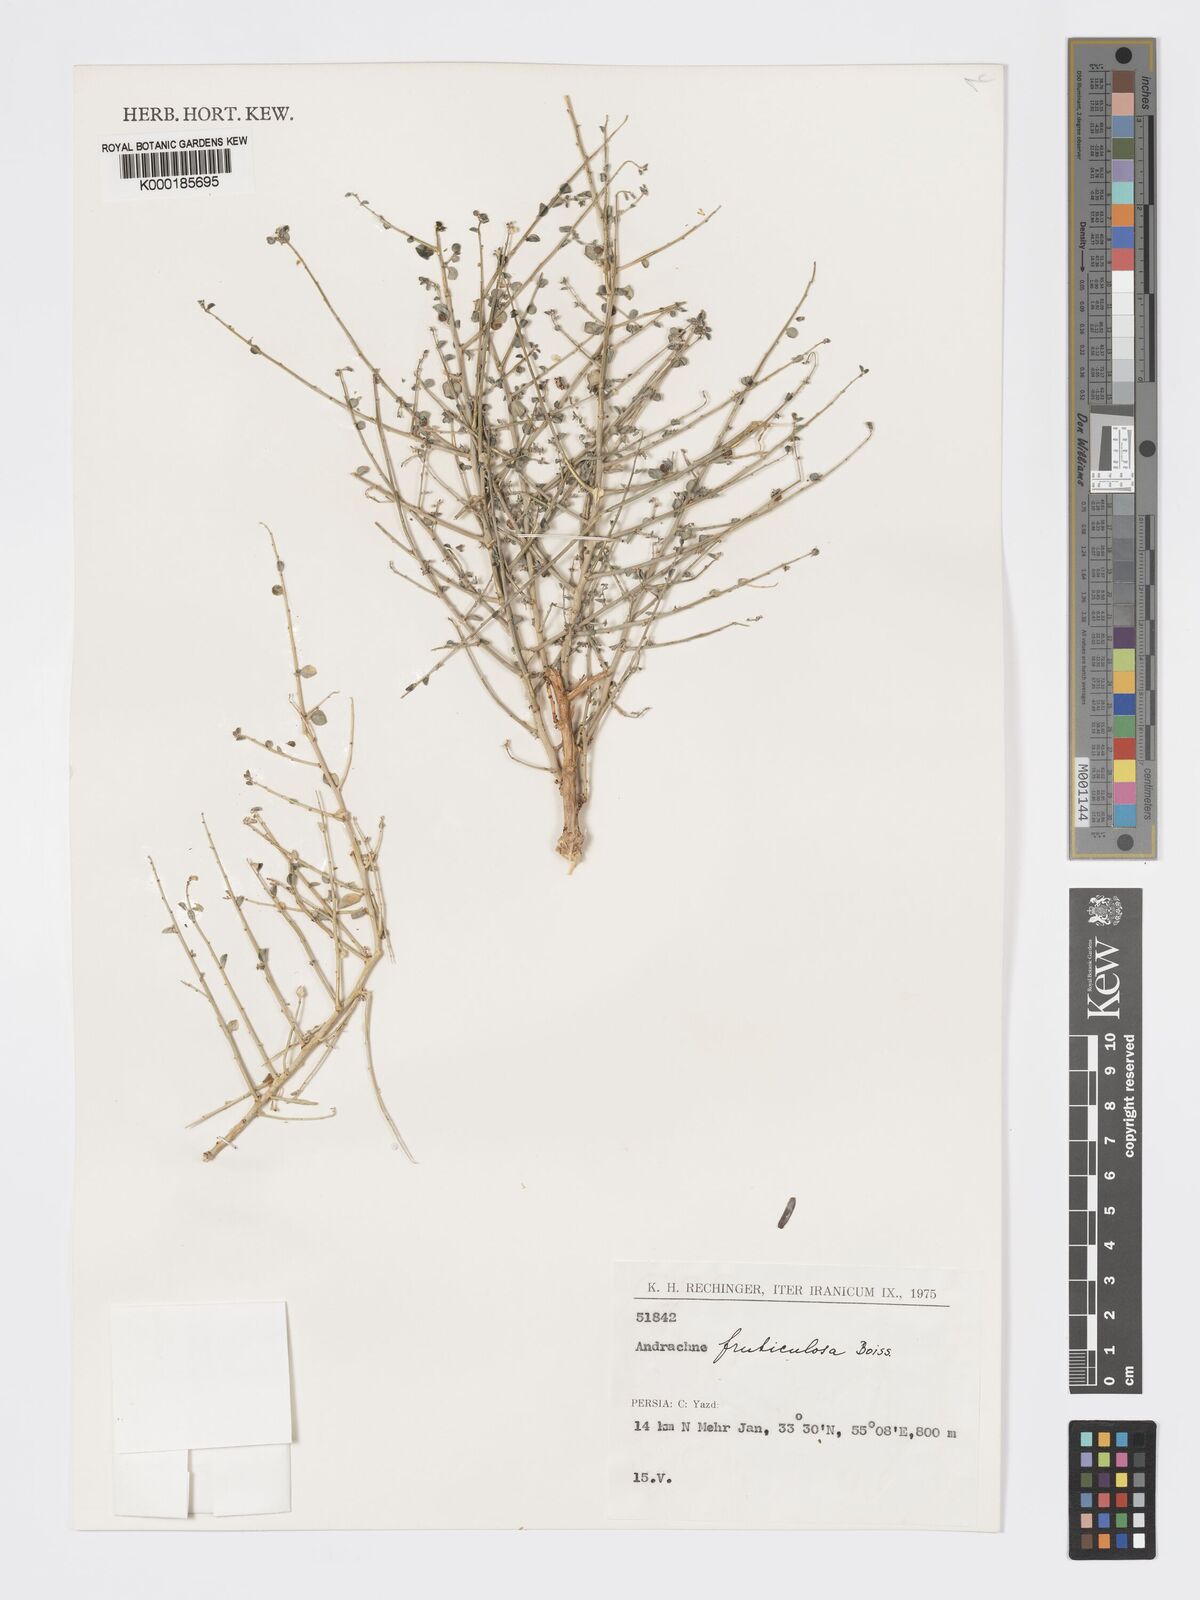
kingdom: Plantae
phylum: Tracheophyta
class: Magnoliopsida
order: Malpighiales
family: Phyllanthaceae
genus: Andrachne
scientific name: Andrachne fruticulosa
